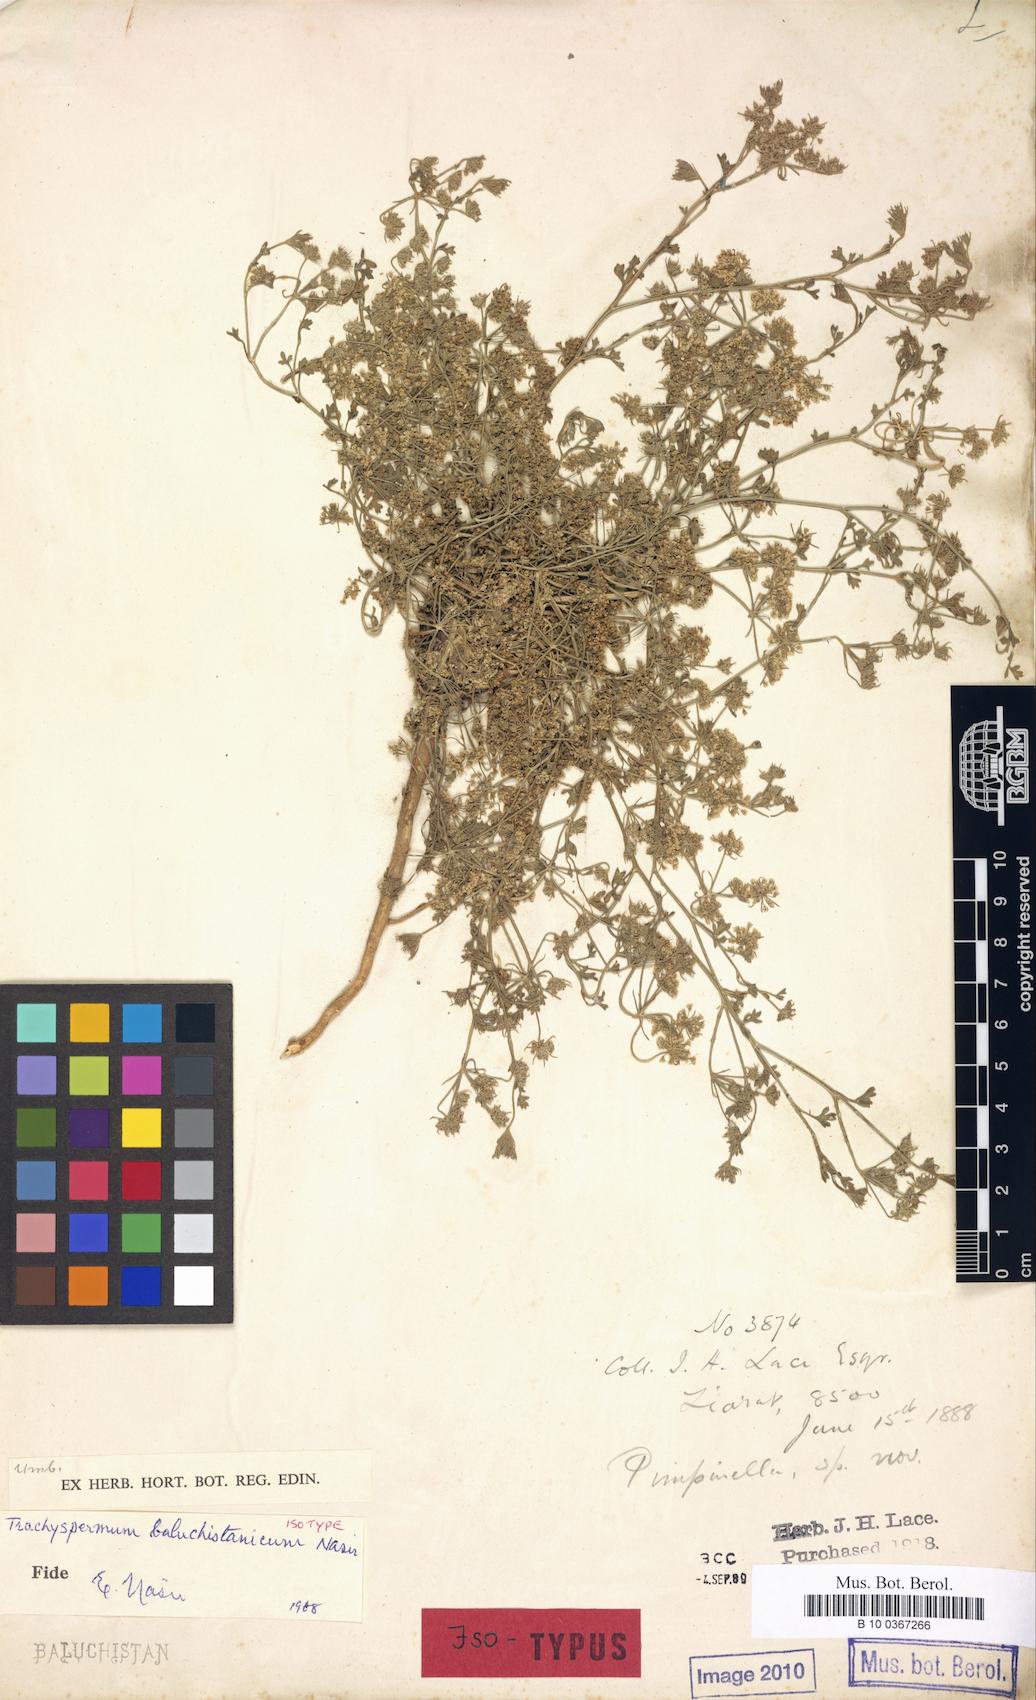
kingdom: Plantae
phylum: Tracheophyta
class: Magnoliopsida
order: Apiales
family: Apiaceae
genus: Trachyspermum
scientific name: Trachyspermum baluchistanicum
